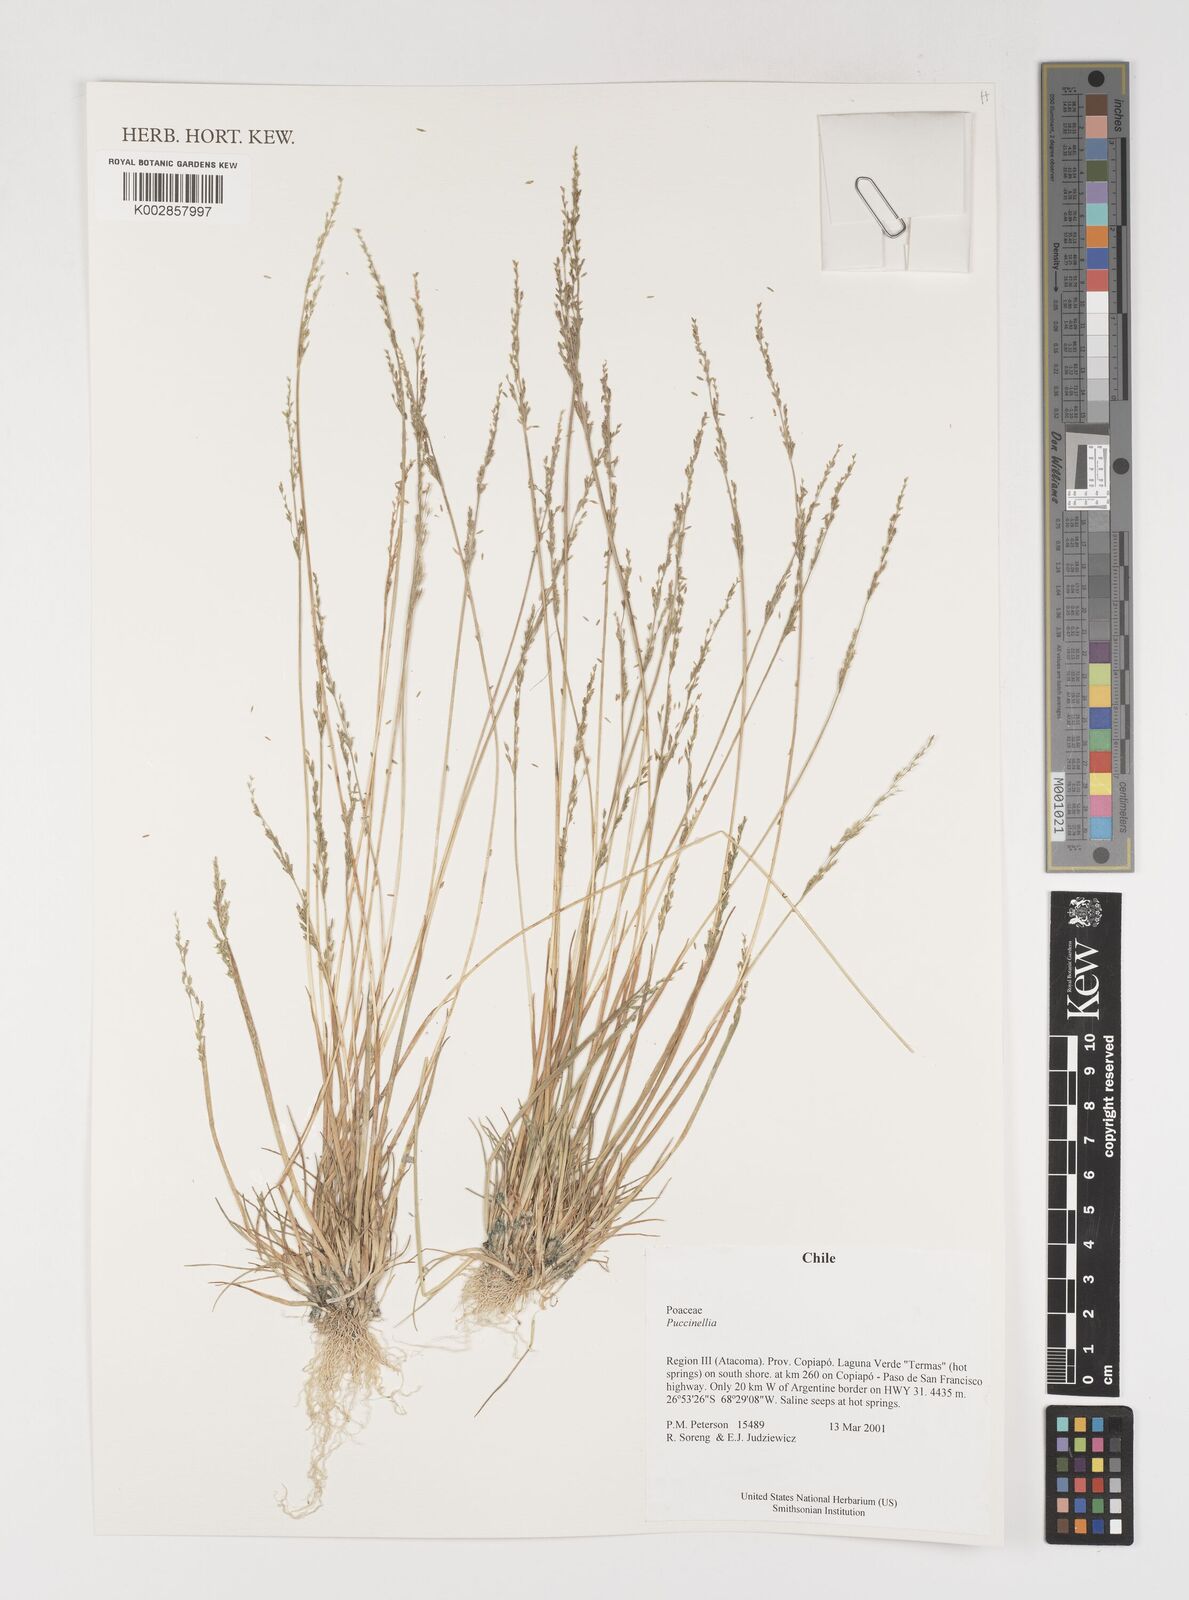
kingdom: Plantae
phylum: Tracheophyta
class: Liliopsida
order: Poales
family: Poaceae
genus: Puccinellia
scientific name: Puccinellia
